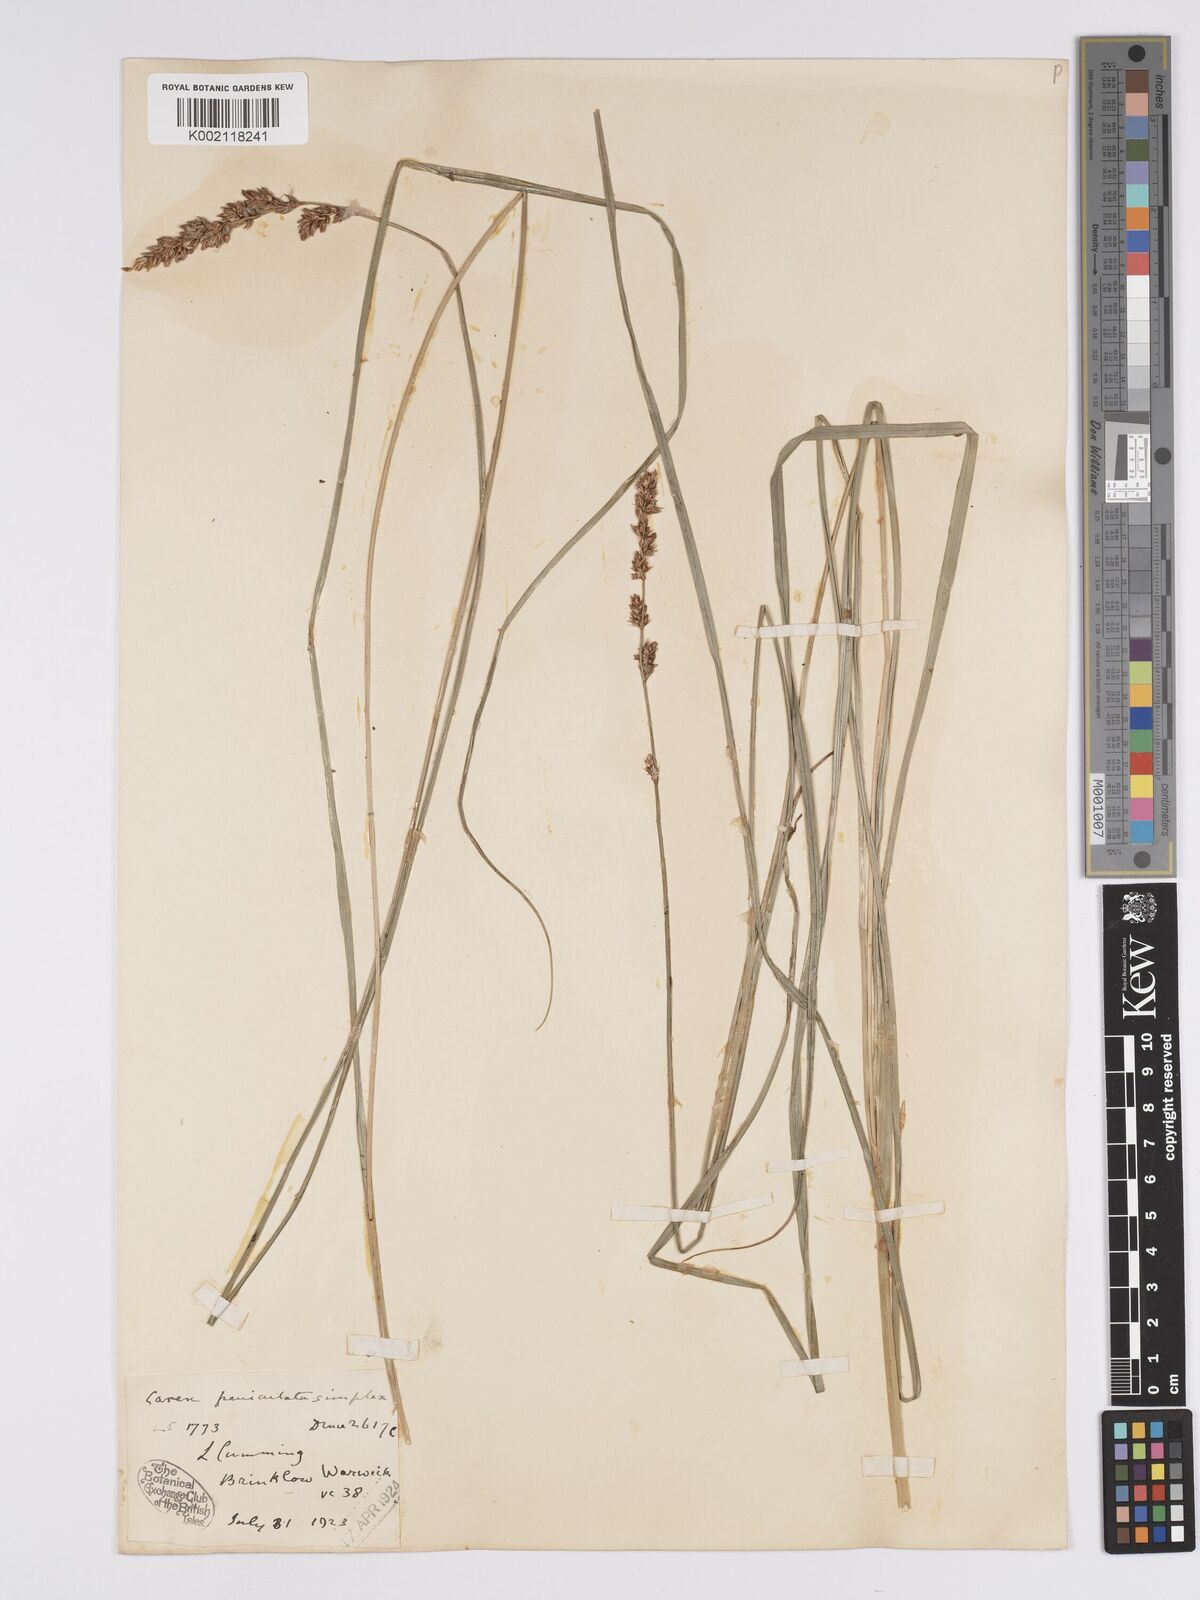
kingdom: Plantae
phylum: Tracheophyta
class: Liliopsida
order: Poales
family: Cyperaceae
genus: Carex
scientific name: Carex paniculata
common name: Greater tussock-sedge
